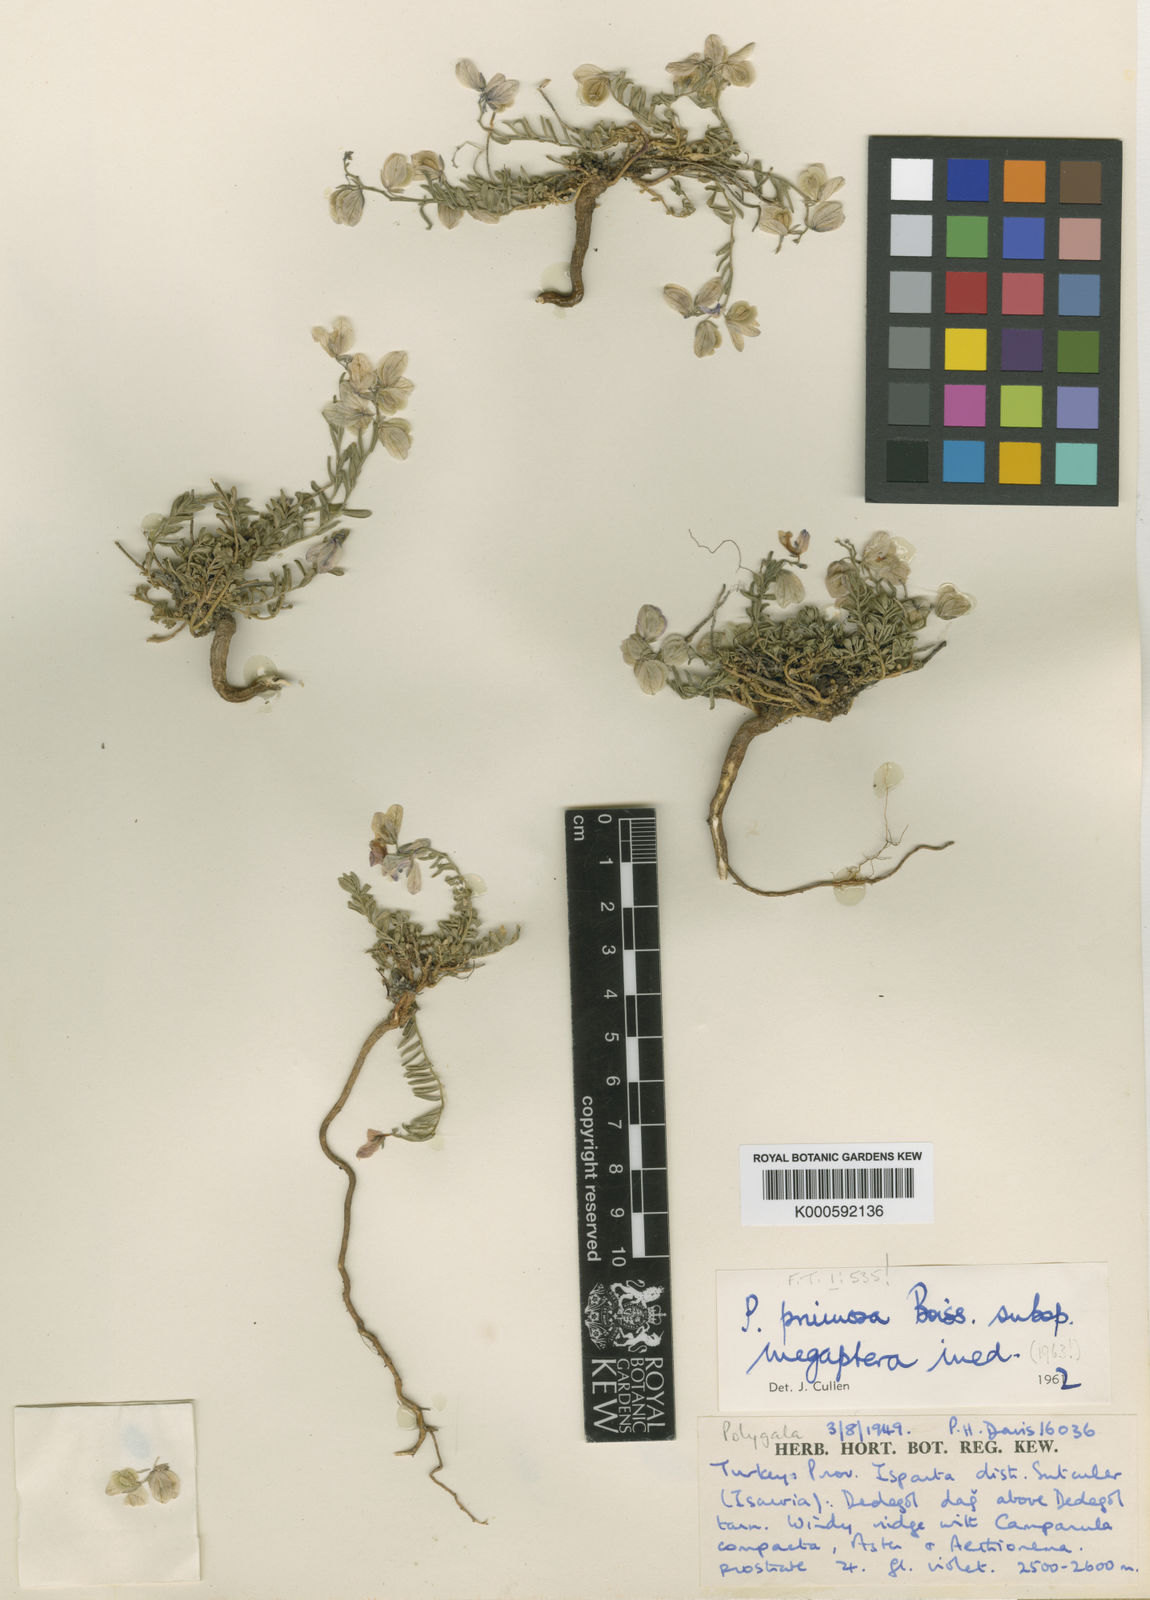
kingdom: Plantae
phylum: Tracheophyta
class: Magnoliopsida
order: Fabales
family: Polygalaceae
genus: Polygala
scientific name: Polygala
